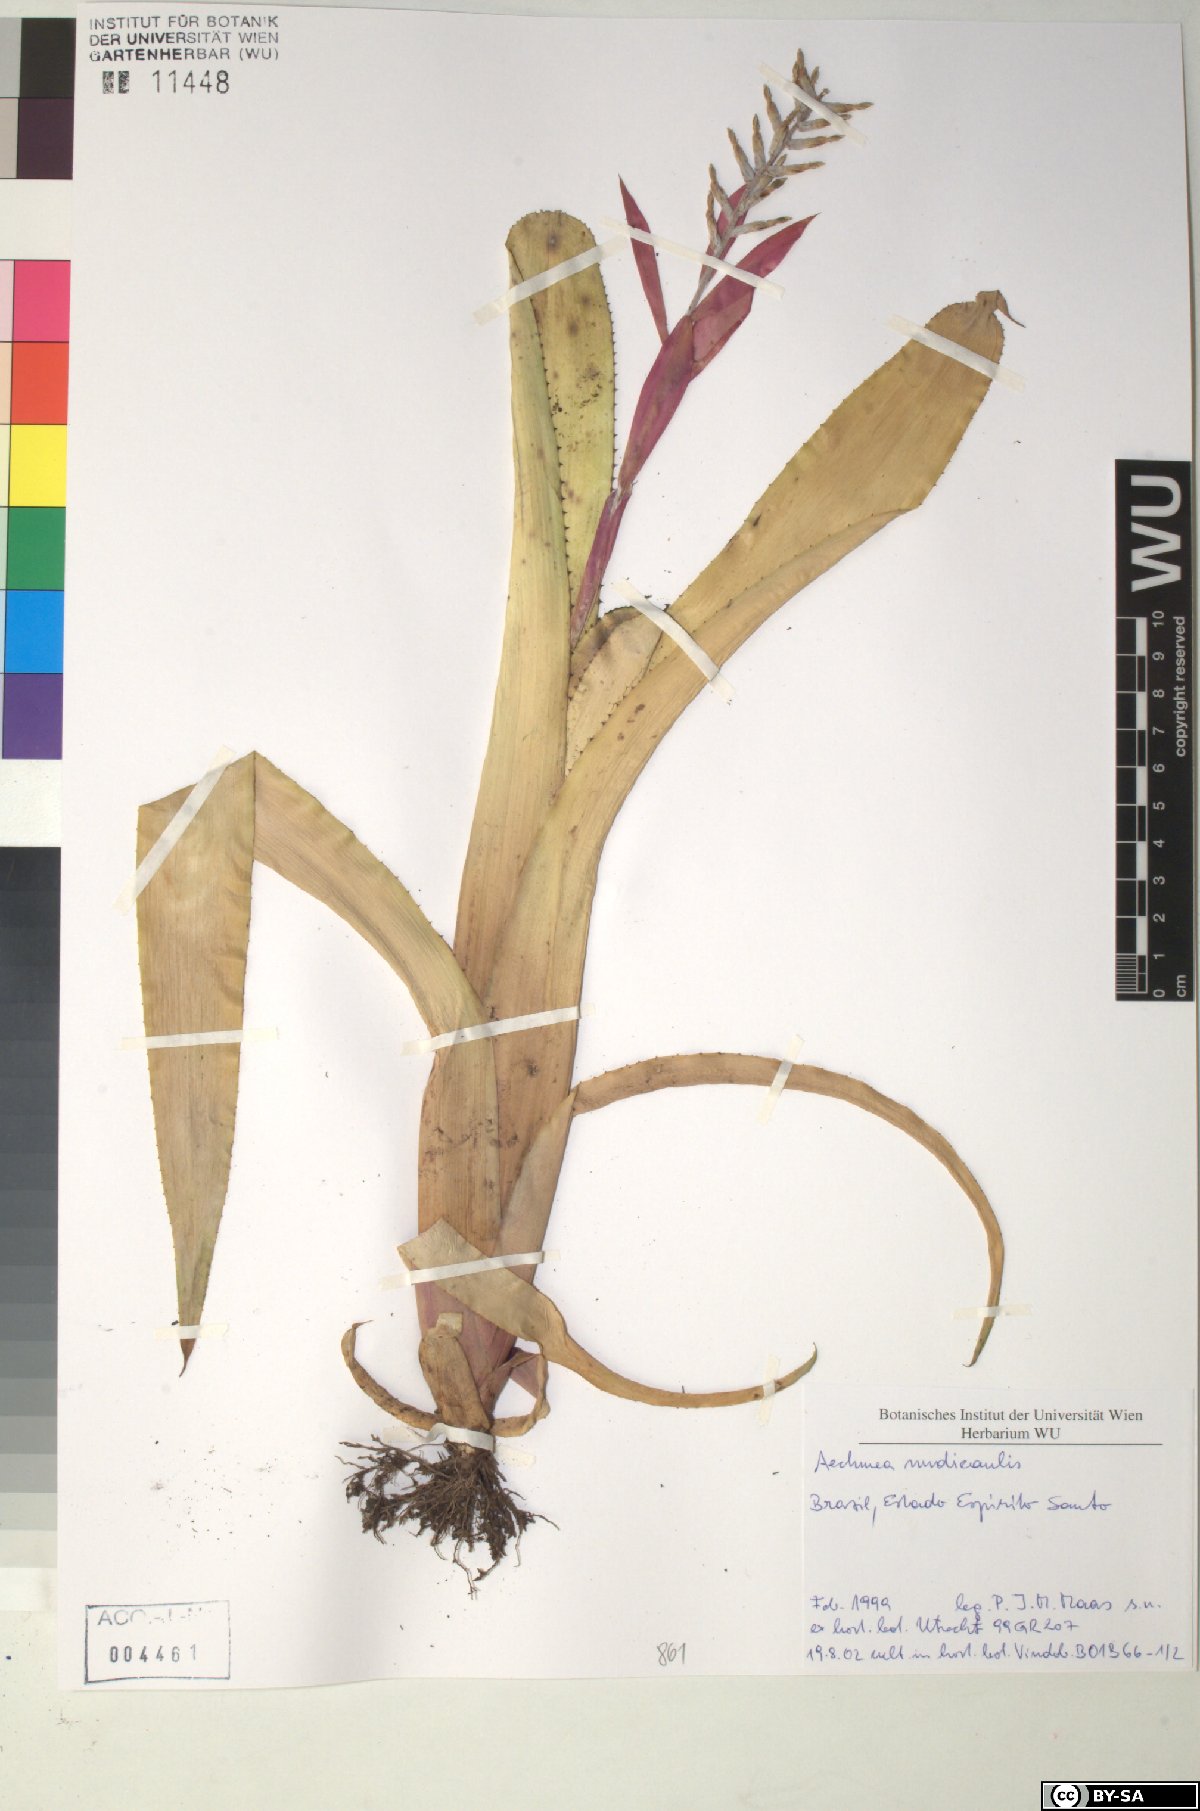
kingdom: Plantae
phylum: Tracheophyta
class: Liliopsida
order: Poales
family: Bromeliaceae
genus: Aechmea
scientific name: Aechmea nudicaulis
